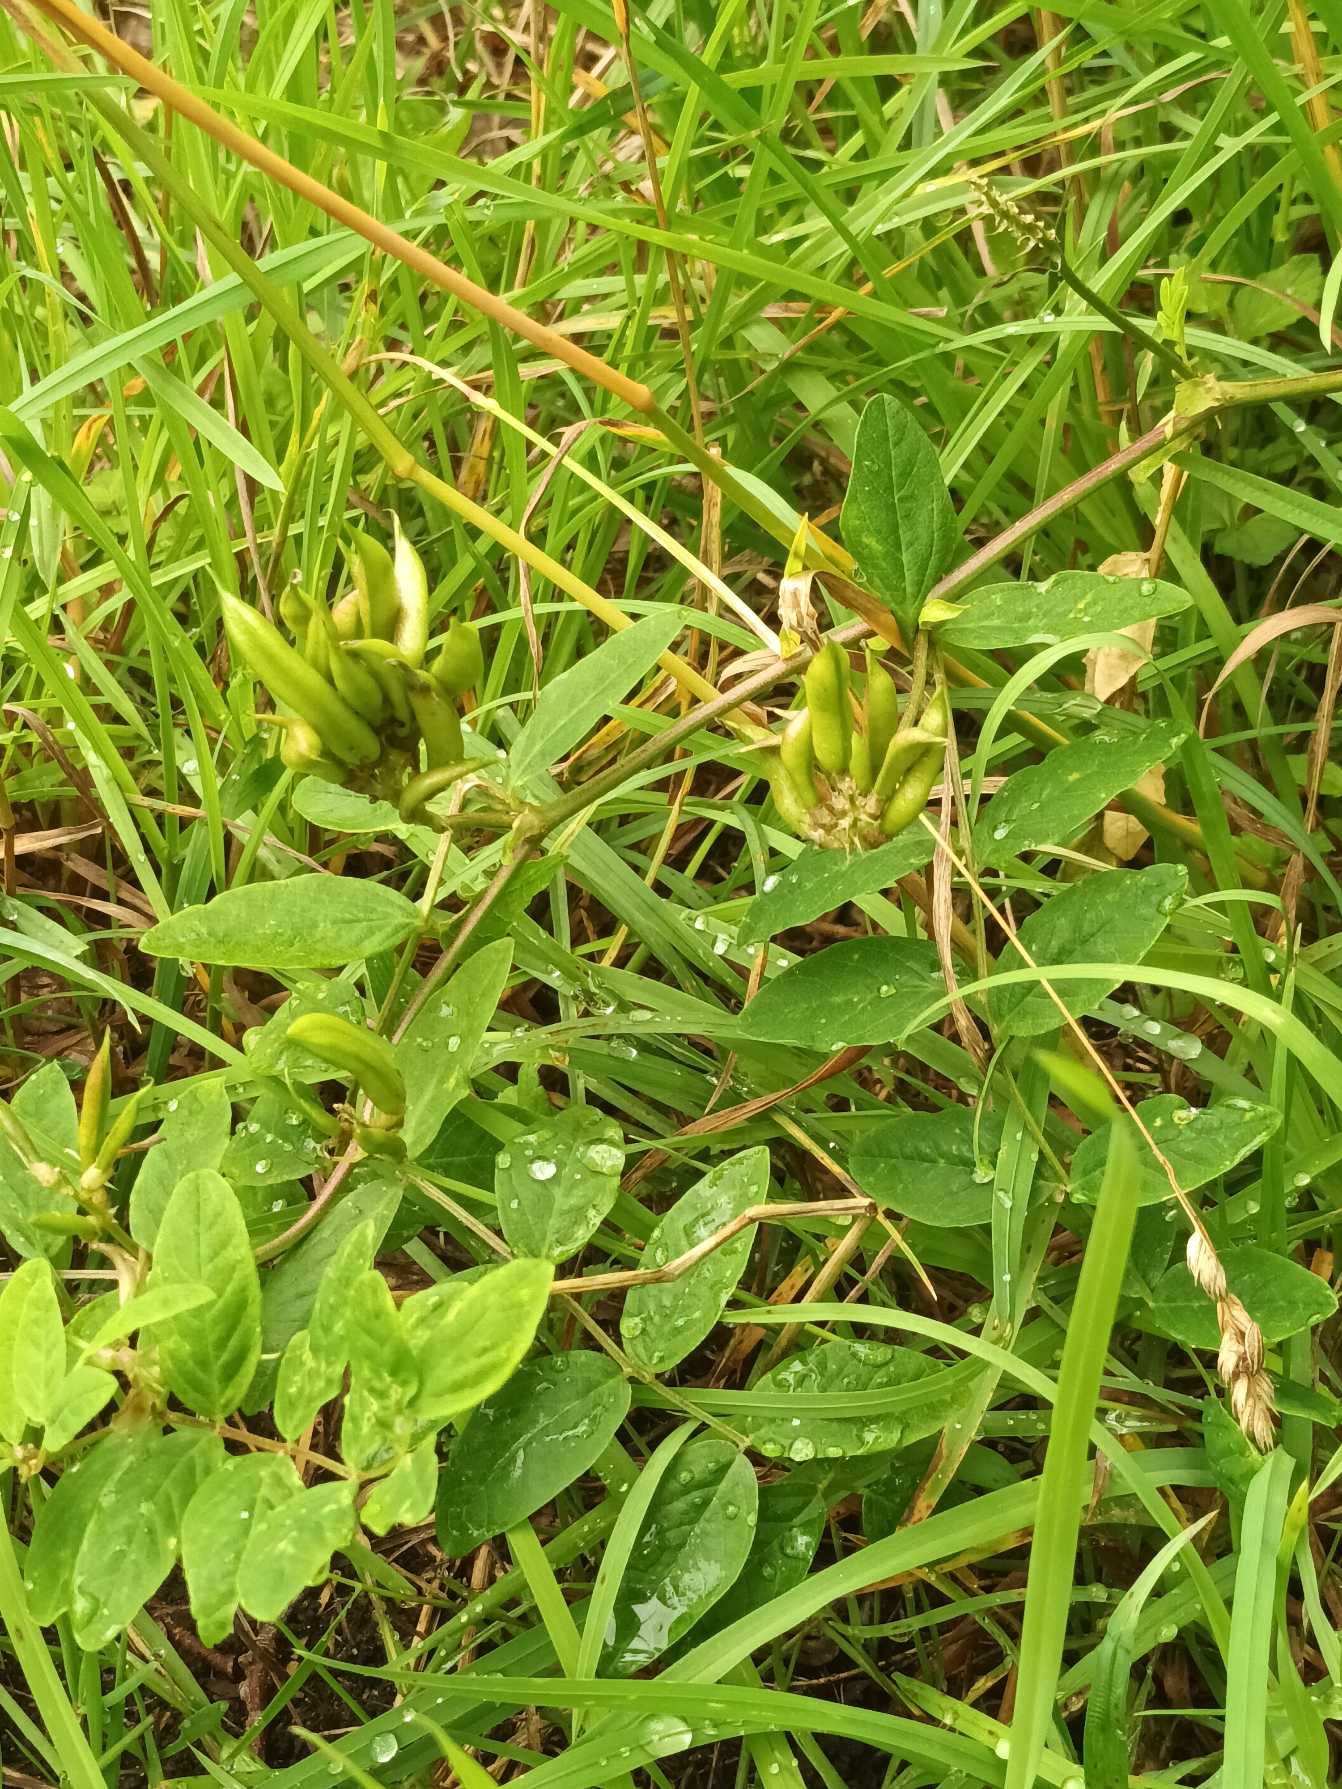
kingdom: Plantae
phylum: Tracheophyta
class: Magnoliopsida
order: Fabales
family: Fabaceae
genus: Astragalus
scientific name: Astragalus glycyphyllos
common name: Sød astragel
